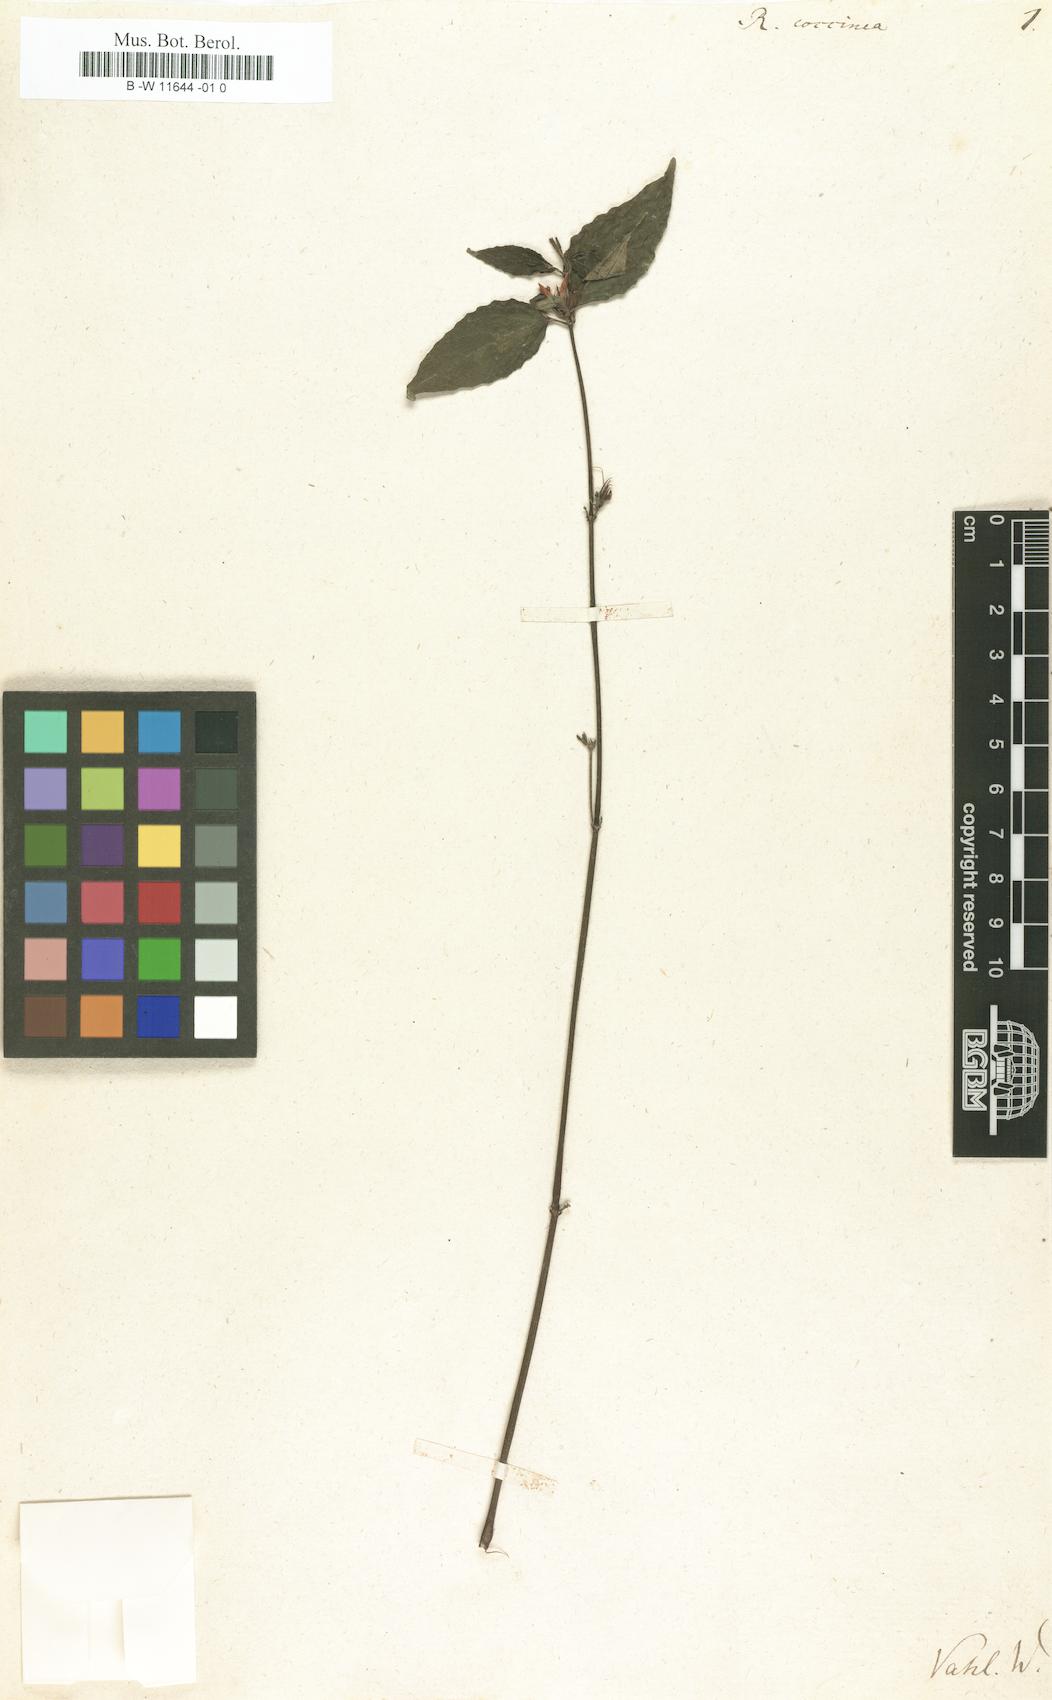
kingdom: Plantae
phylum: Tracheophyta
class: Magnoliopsida
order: Lamiales
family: Acanthaceae
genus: Ruellia
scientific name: Ruellia coccinea
